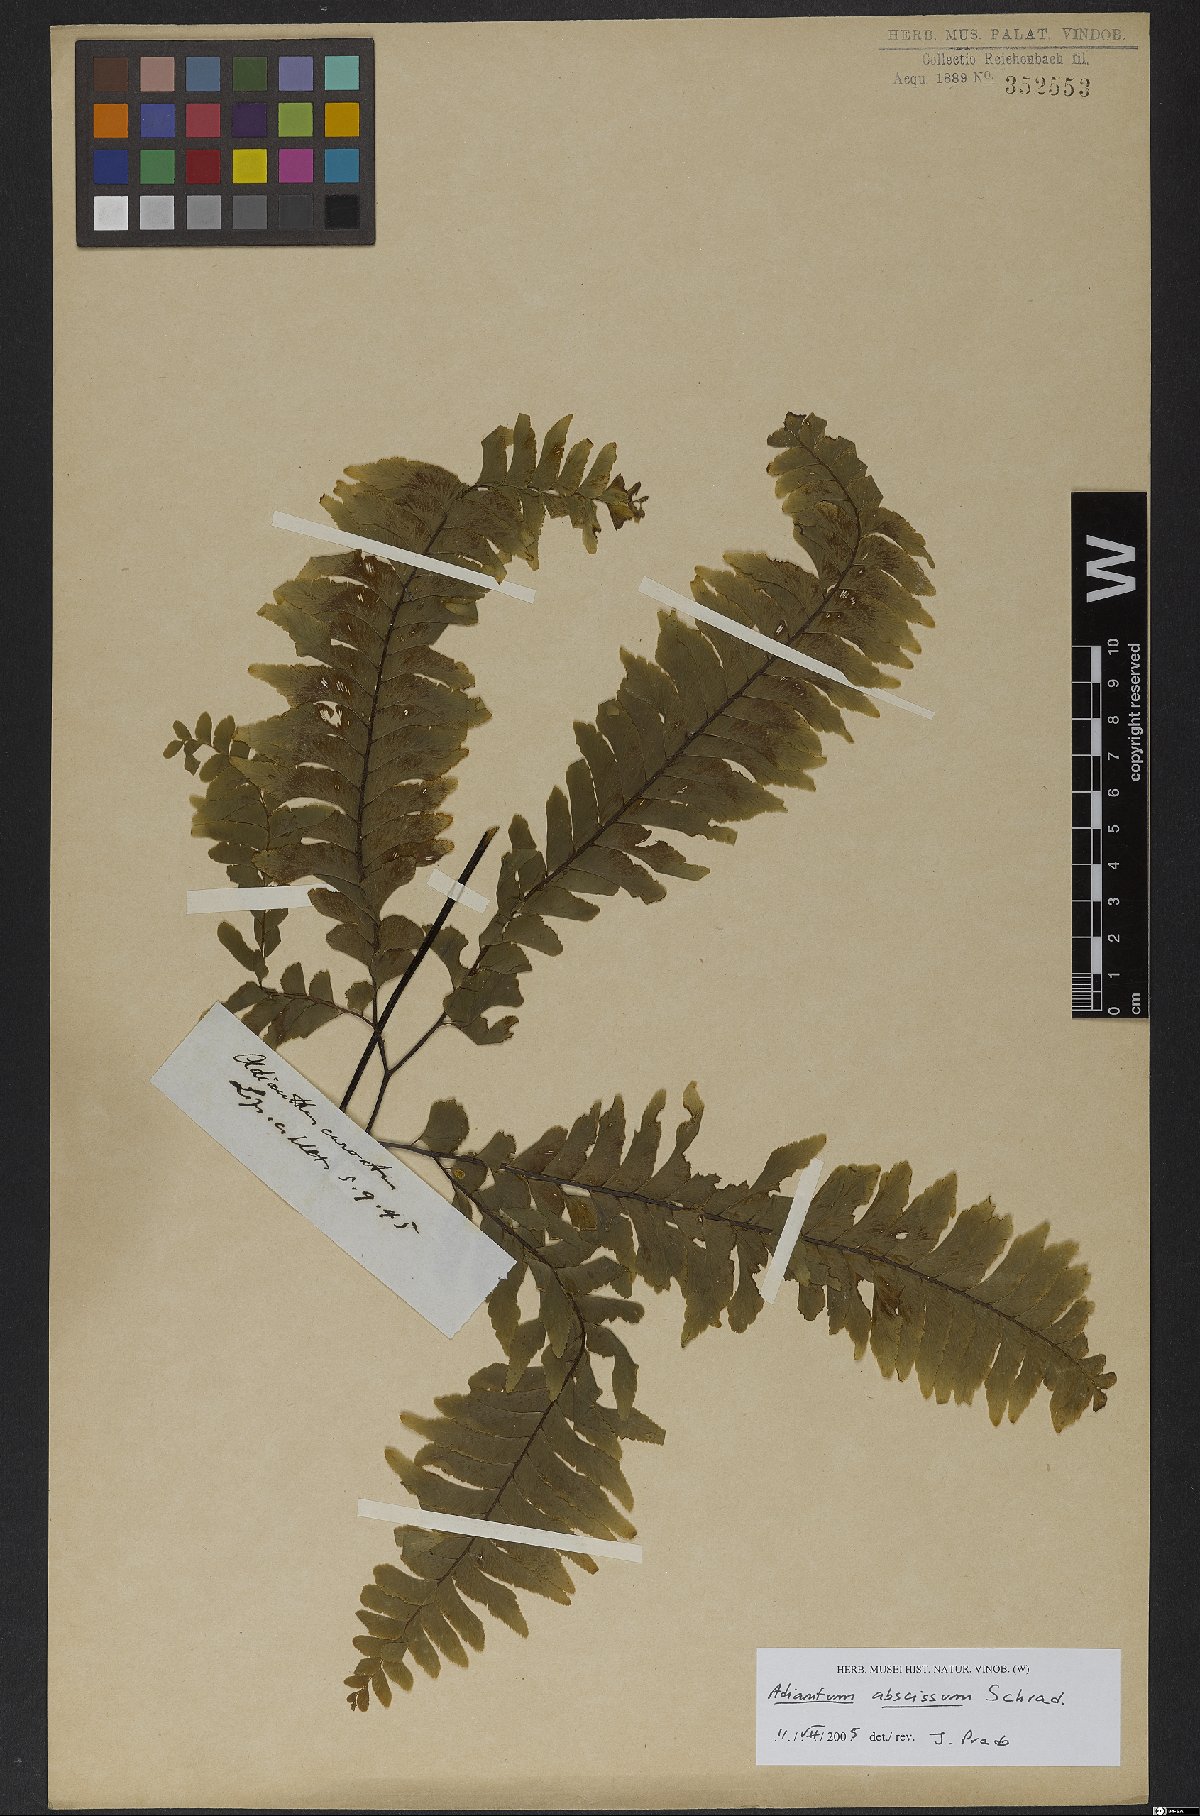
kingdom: Plantae
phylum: Tracheophyta
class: Polypodiopsida
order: Polypodiales
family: Pteridaceae
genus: Adiantum
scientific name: Adiantum abscissum
